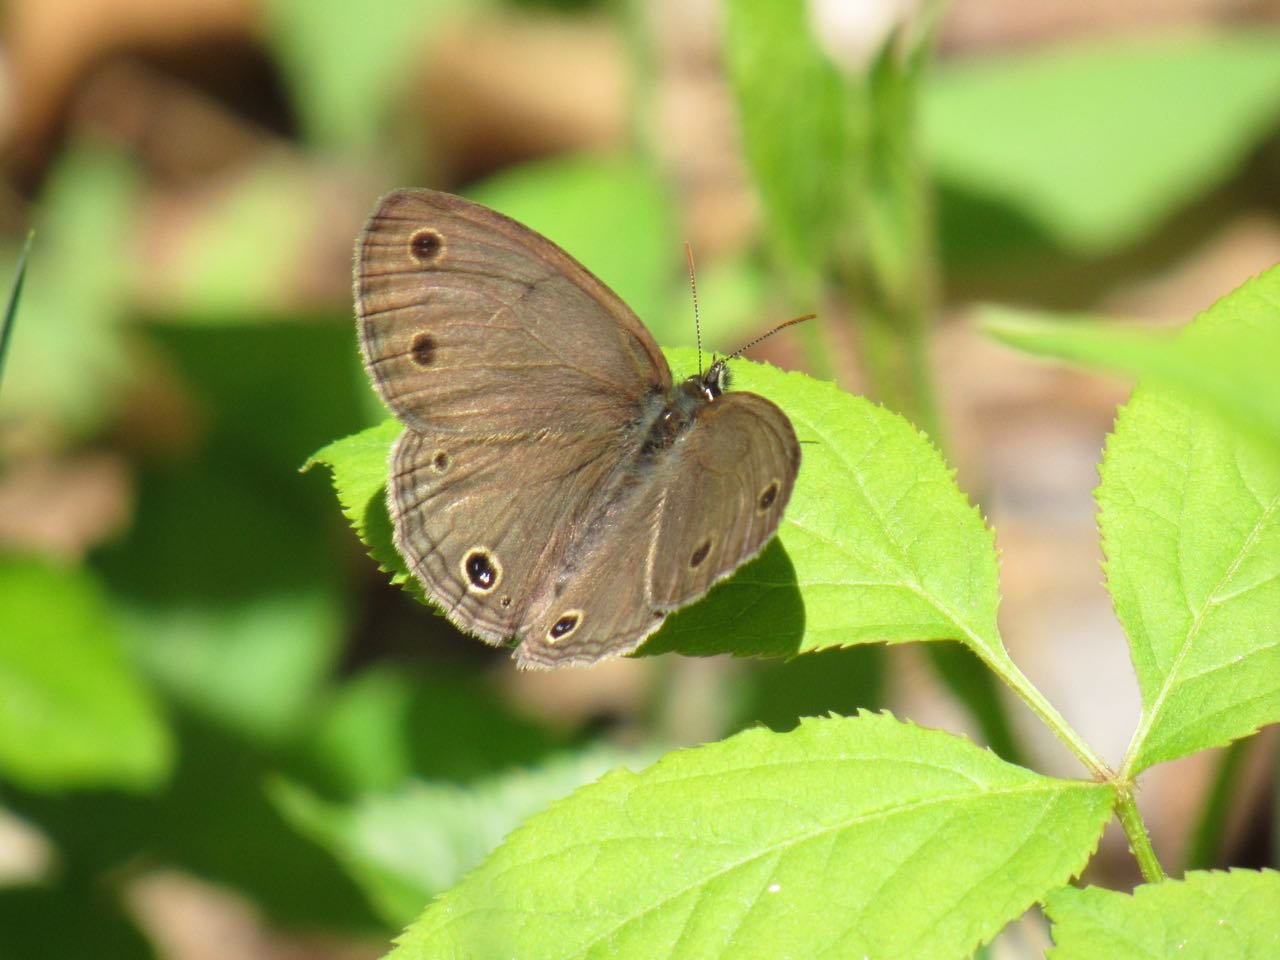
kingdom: Animalia
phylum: Arthropoda
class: Insecta
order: Lepidoptera
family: Nymphalidae
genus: Euptychia
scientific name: Euptychia cymela
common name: Little Wood Satyr
